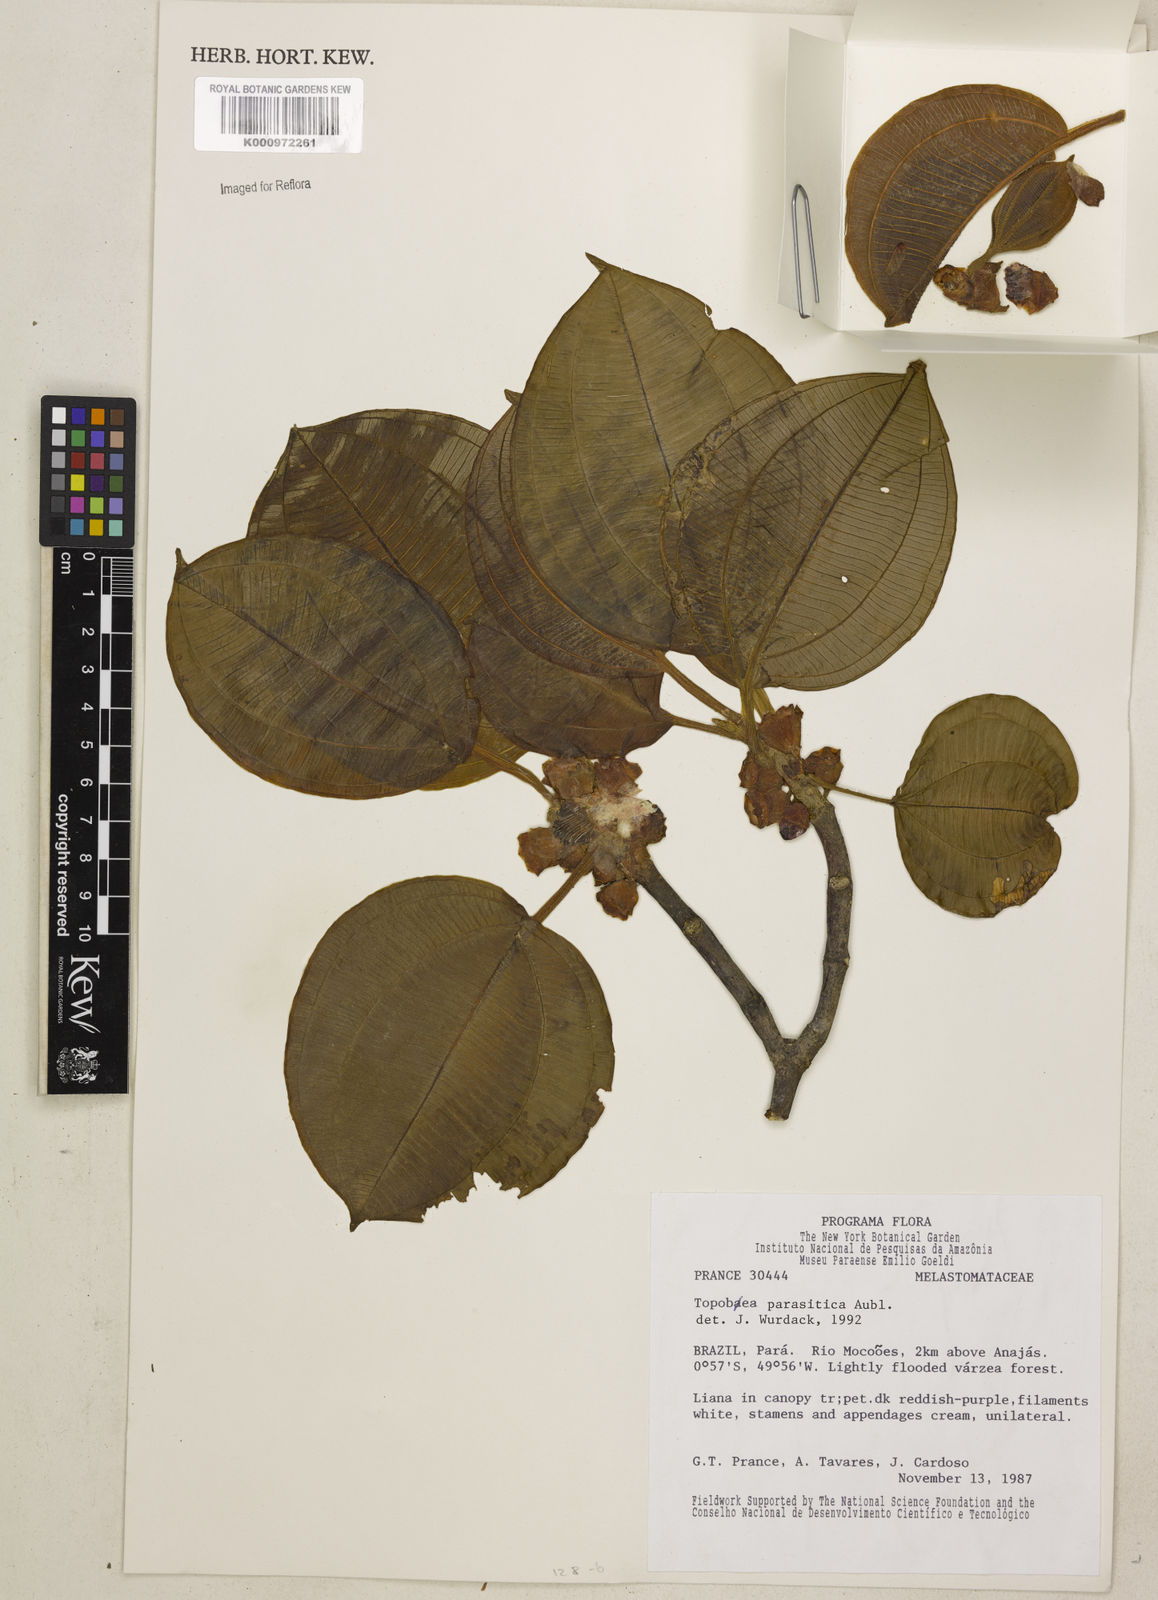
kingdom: Plantae
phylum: Tracheophyta
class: Magnoliopsida
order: Myrtales
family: Melastomataceae
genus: Blakea
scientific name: Blakea parasitica
